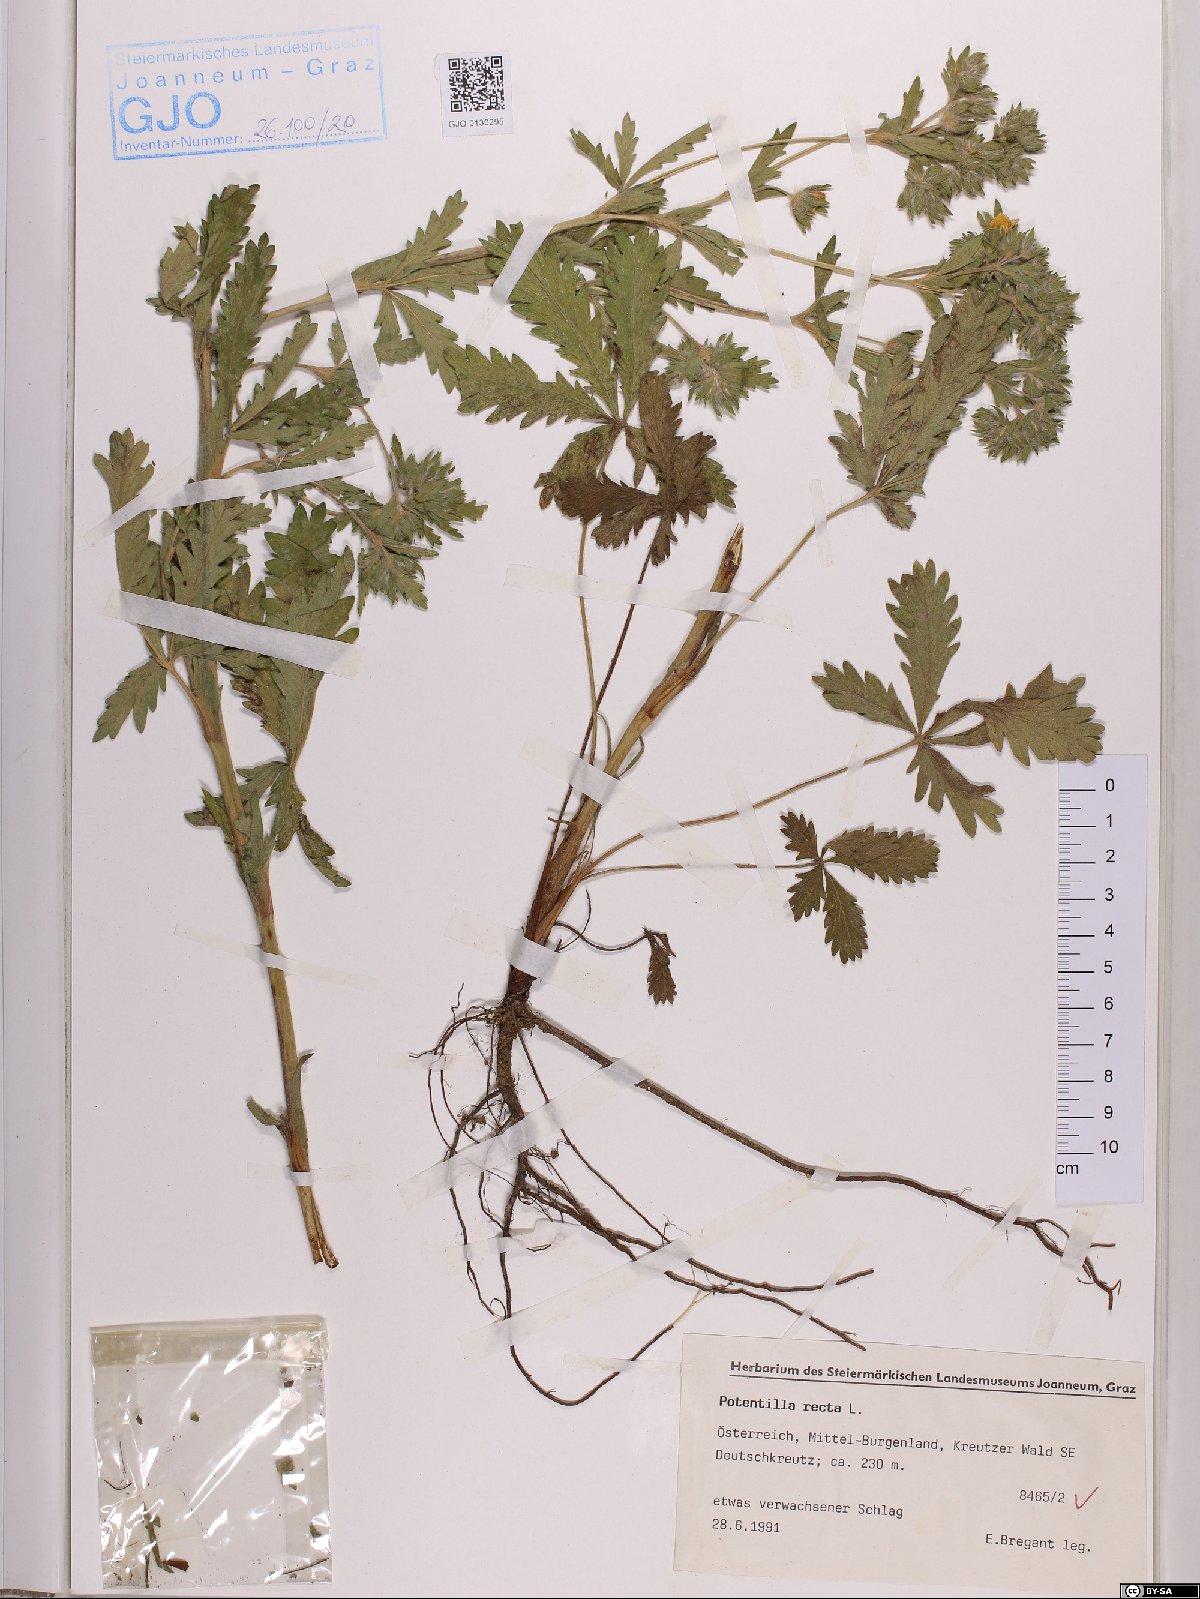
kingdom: Plantae
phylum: Tracheophyta
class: Magnoliopsida
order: Rosales
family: Rosaceae
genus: Potentilla
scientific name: Potentilla recta
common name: Sulphur cinquefoil
